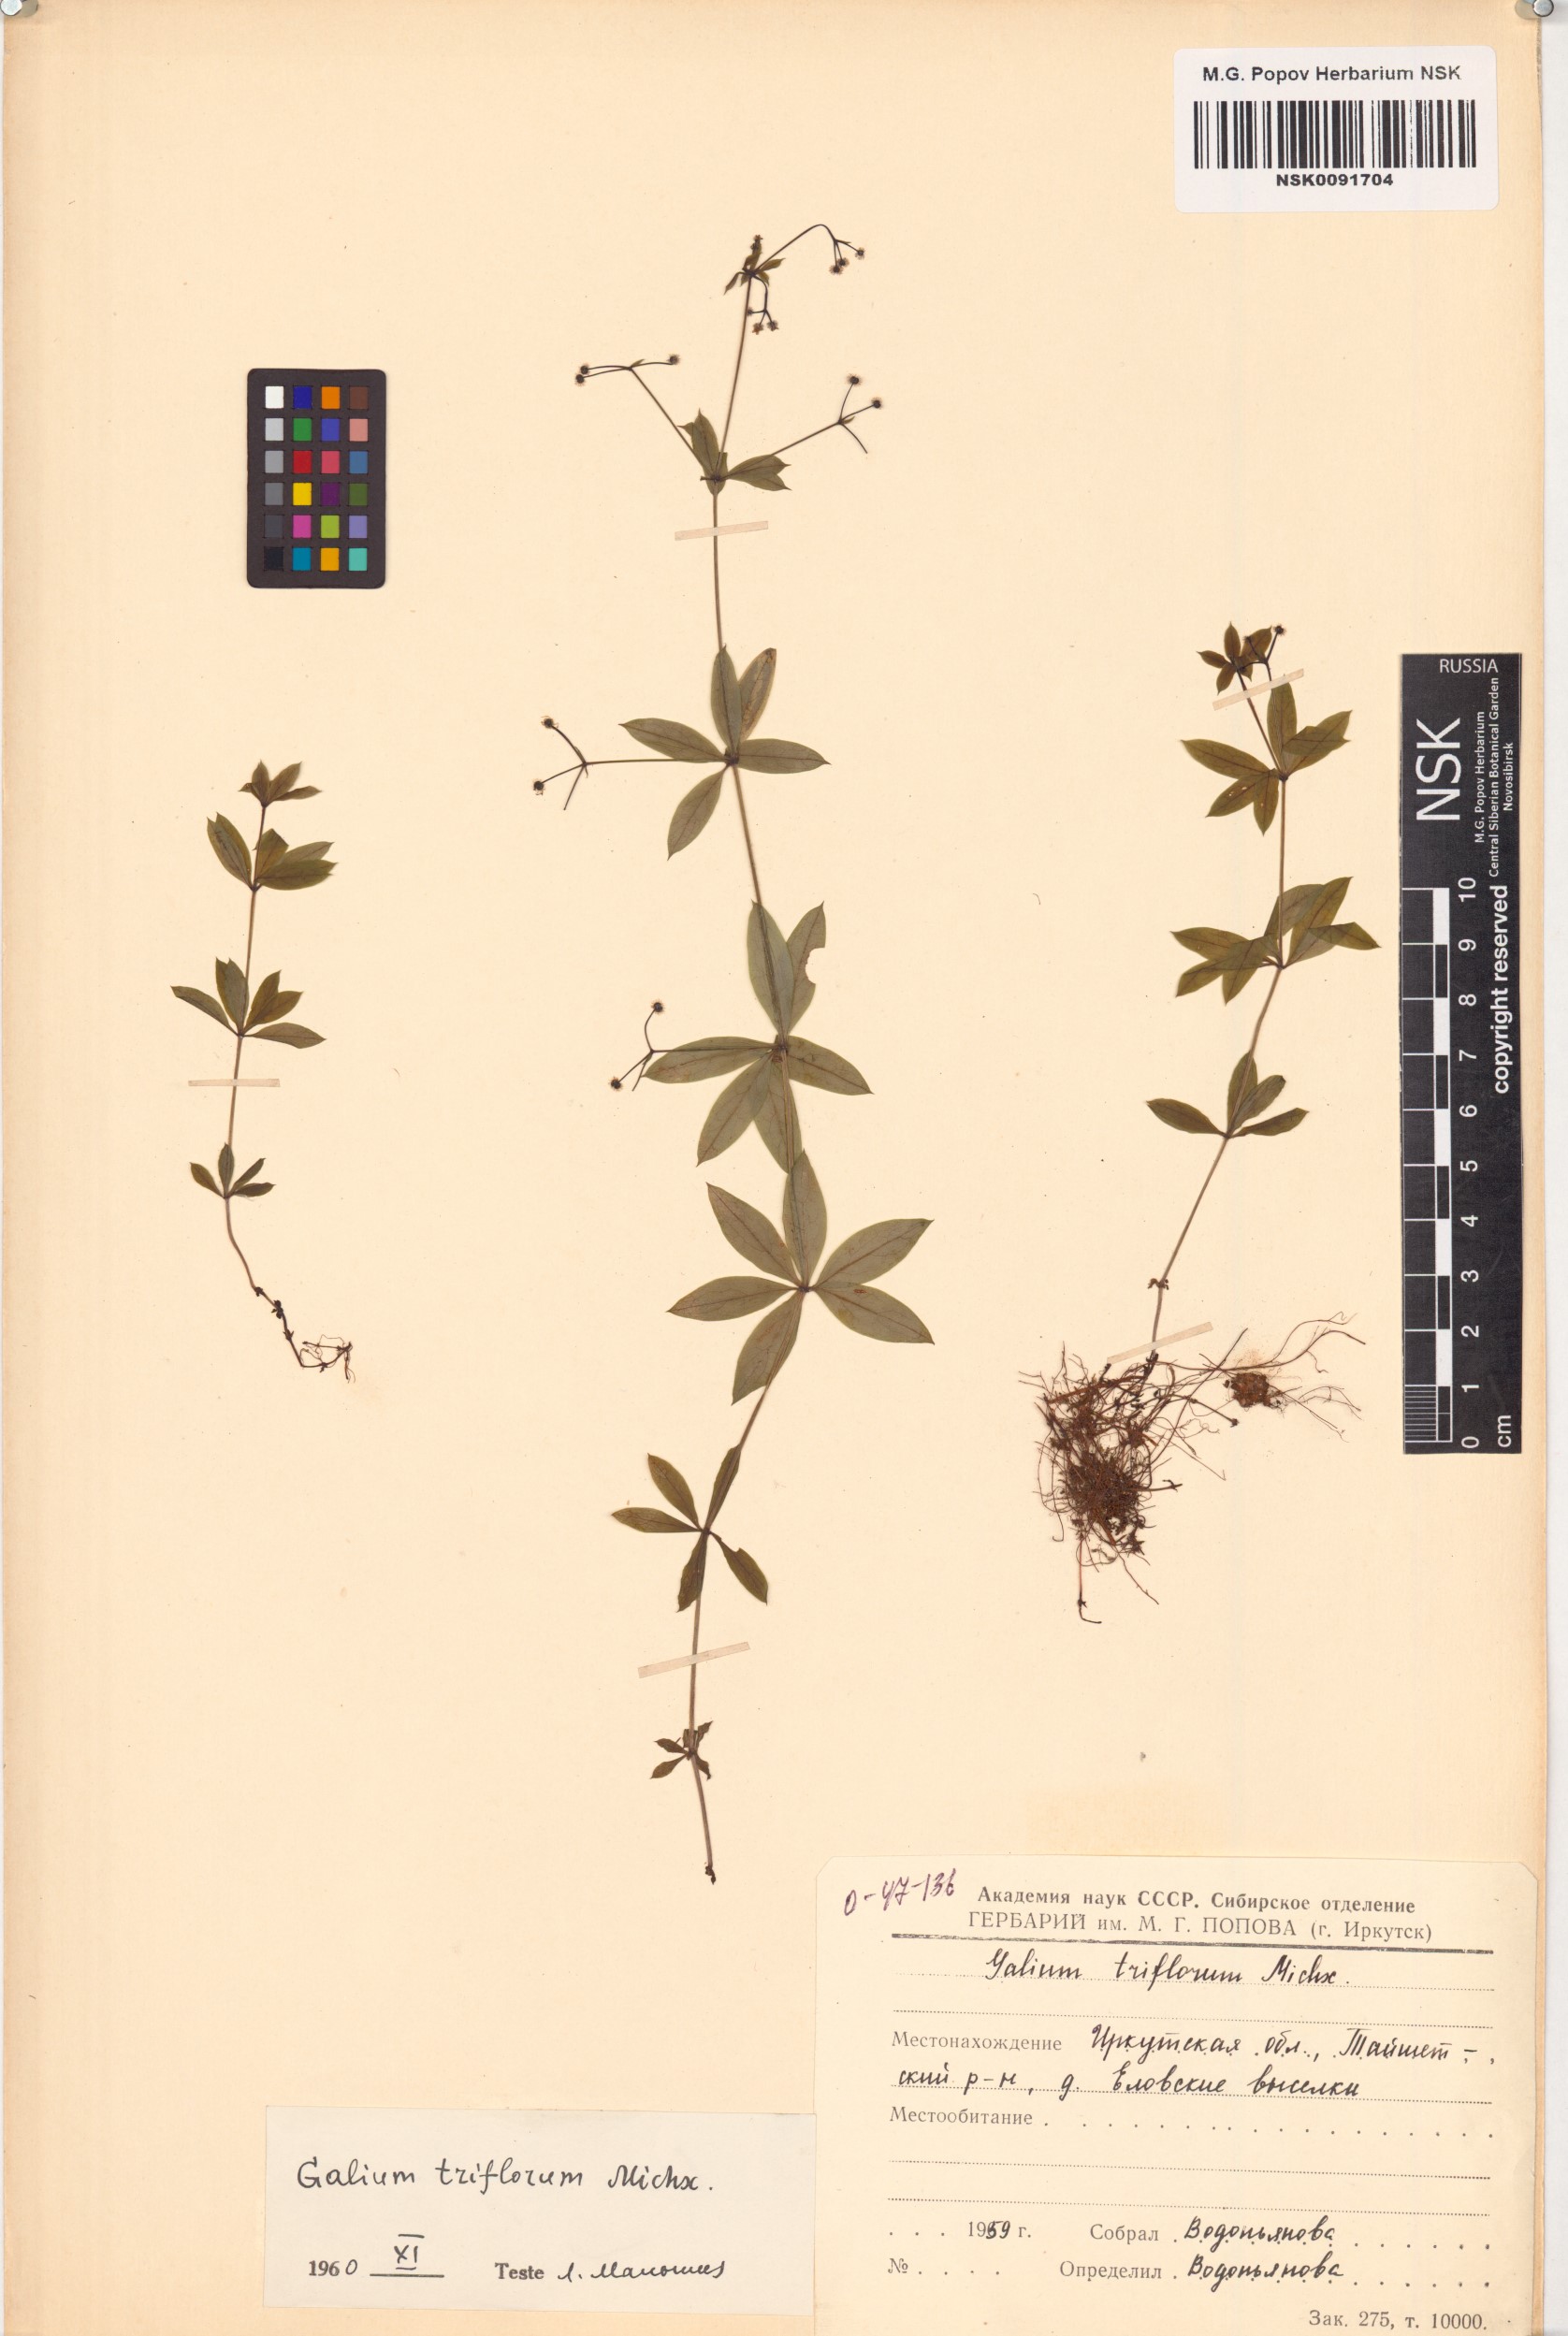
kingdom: Plantae
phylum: Tracheophyta
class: Magnoliopsida
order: Gentianales
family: Rubiaceae
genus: Galium
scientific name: Galium triflorum
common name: Fragrant bedstraw
